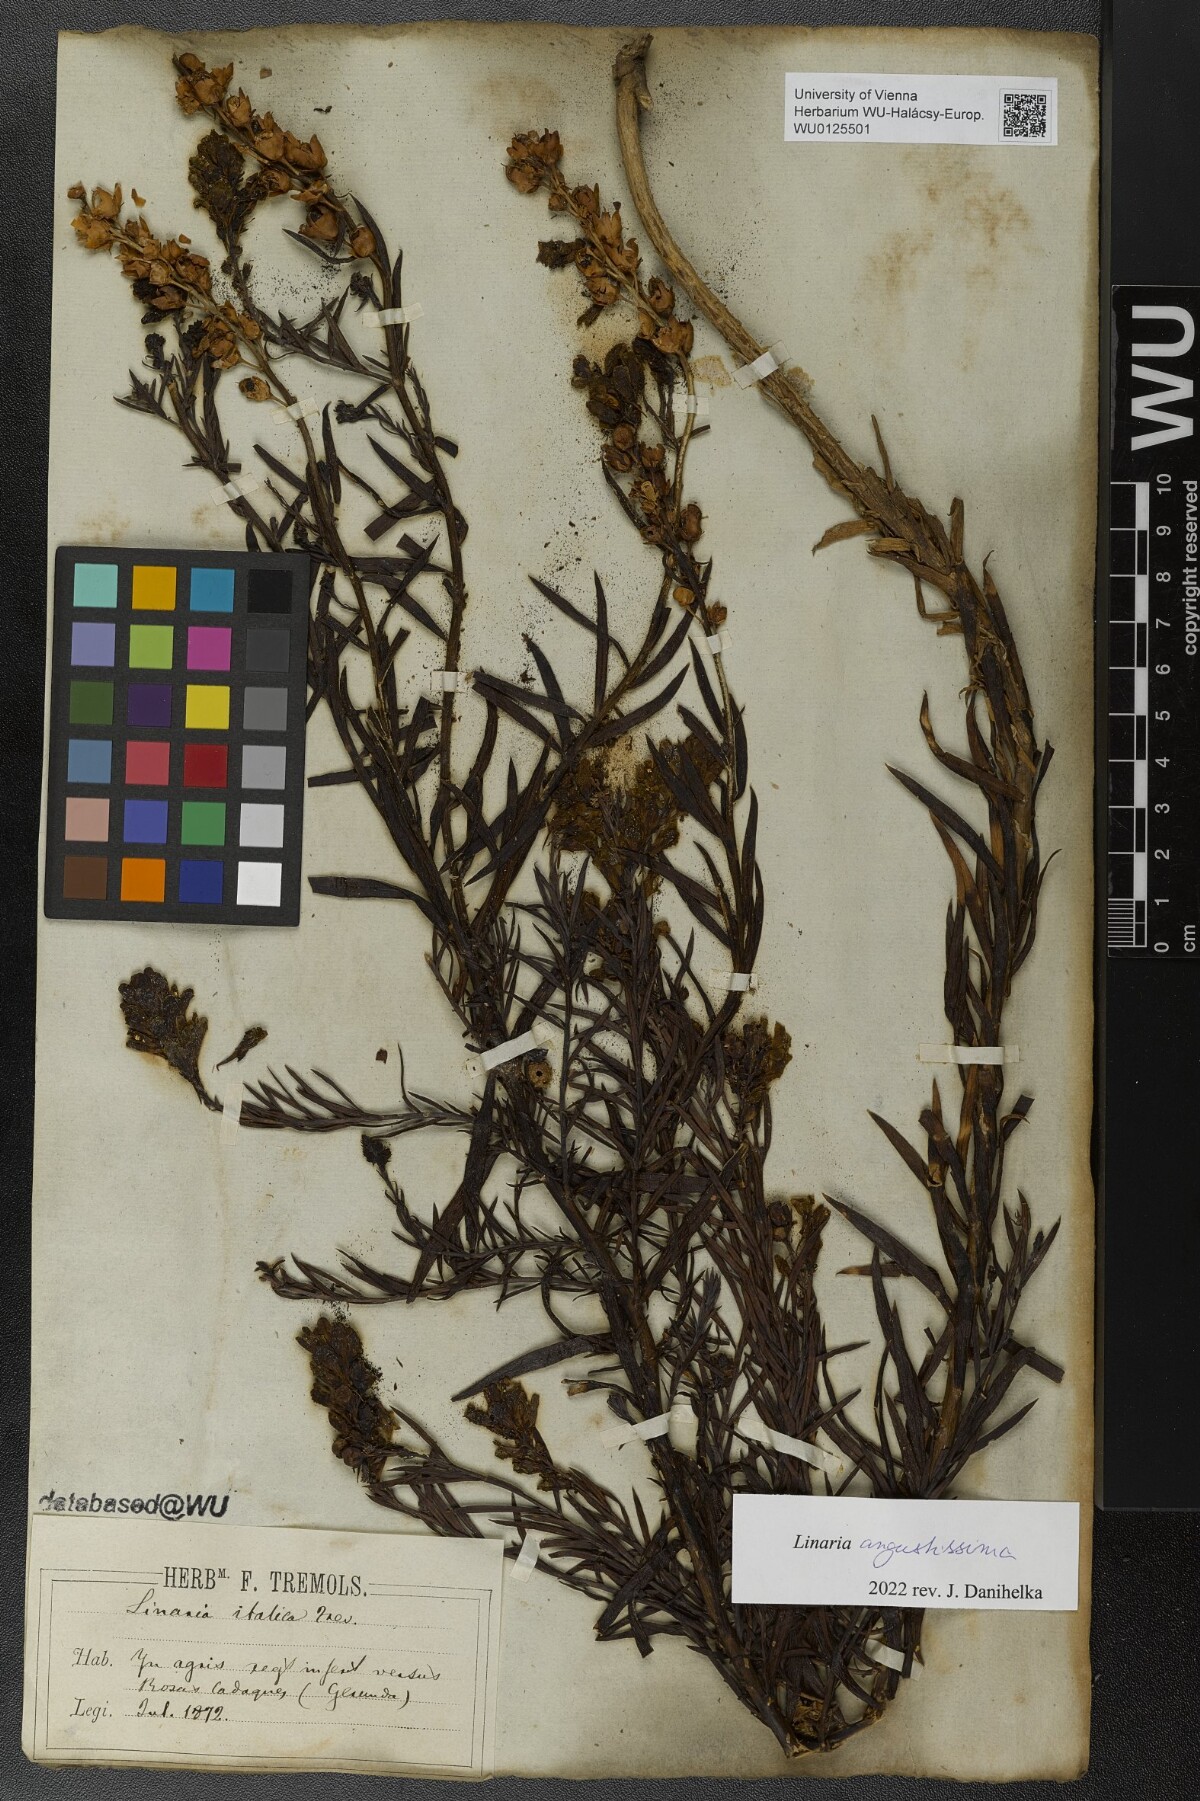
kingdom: Plantae
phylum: Tracheophyta
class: Magnoliopsida
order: Lamiales
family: Plantaginaceae
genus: Linaria
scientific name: Linaria angustissima
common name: Italian toadflax
